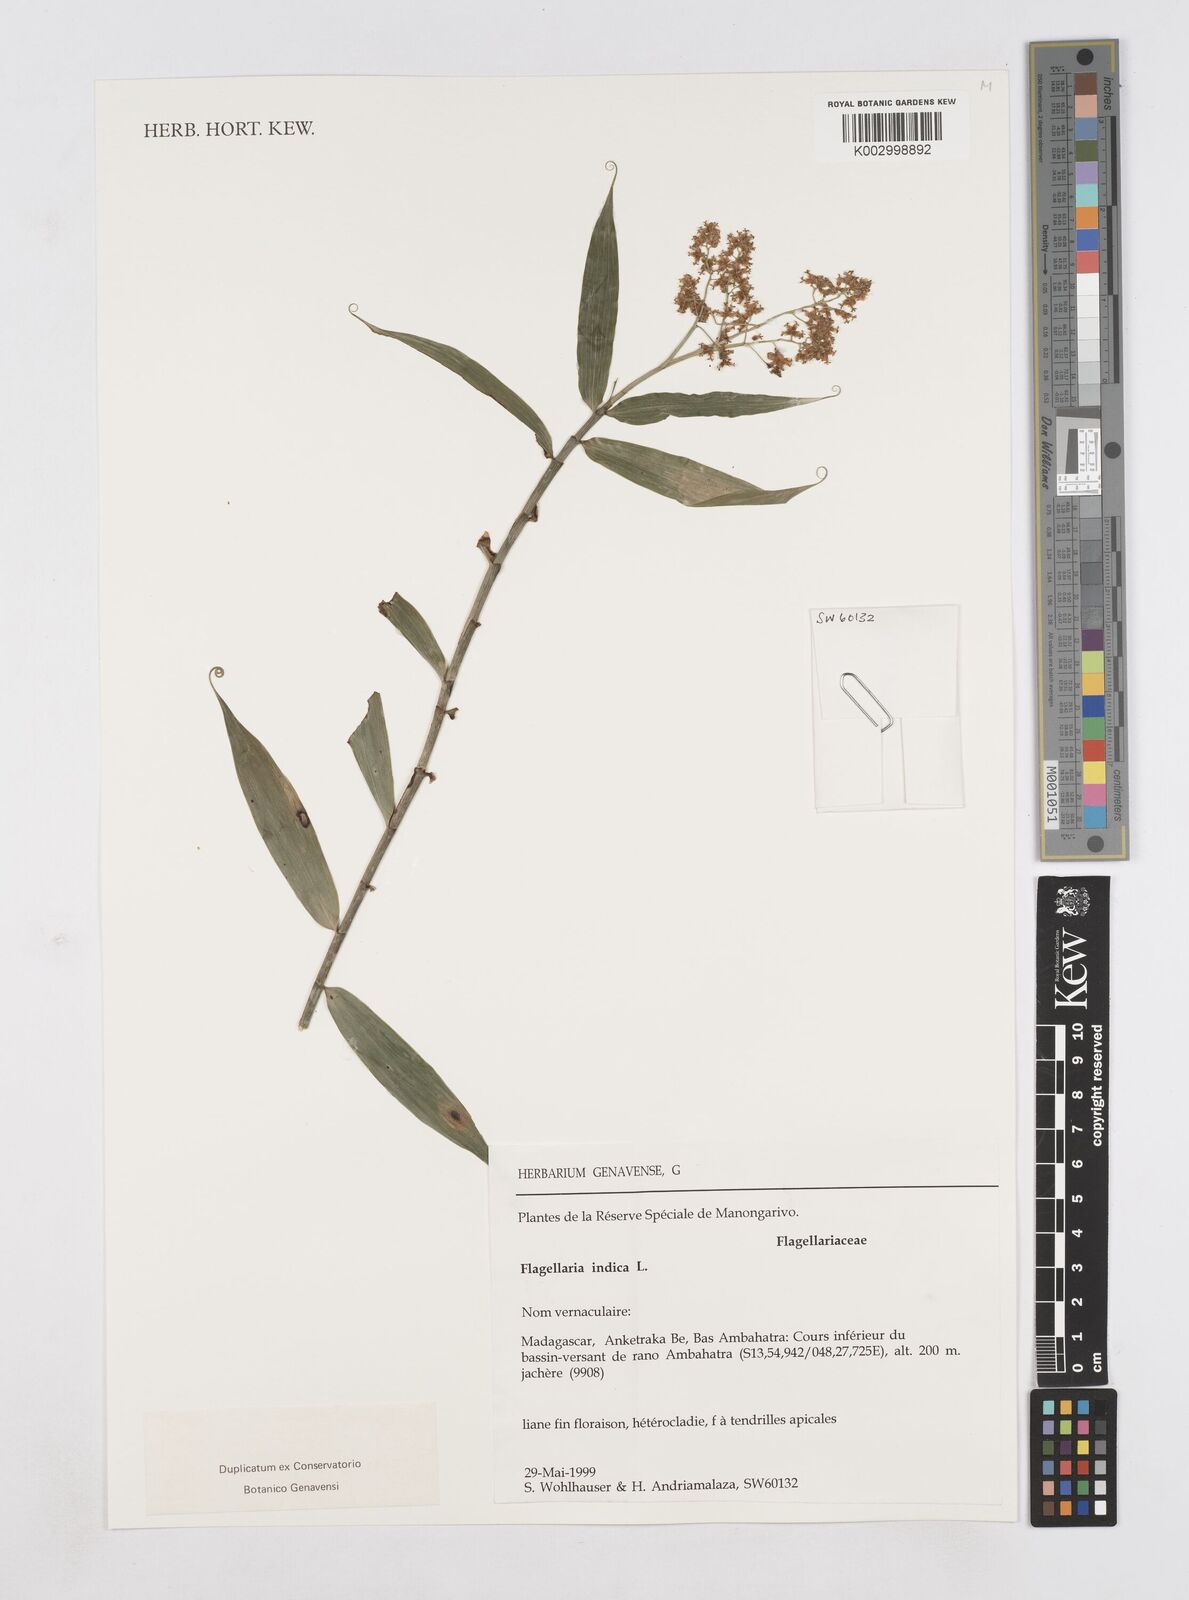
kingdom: Plantae
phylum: Tracheophyta
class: Liliopsida
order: Poales
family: Flagellariaceae
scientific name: Flagellariaceae
